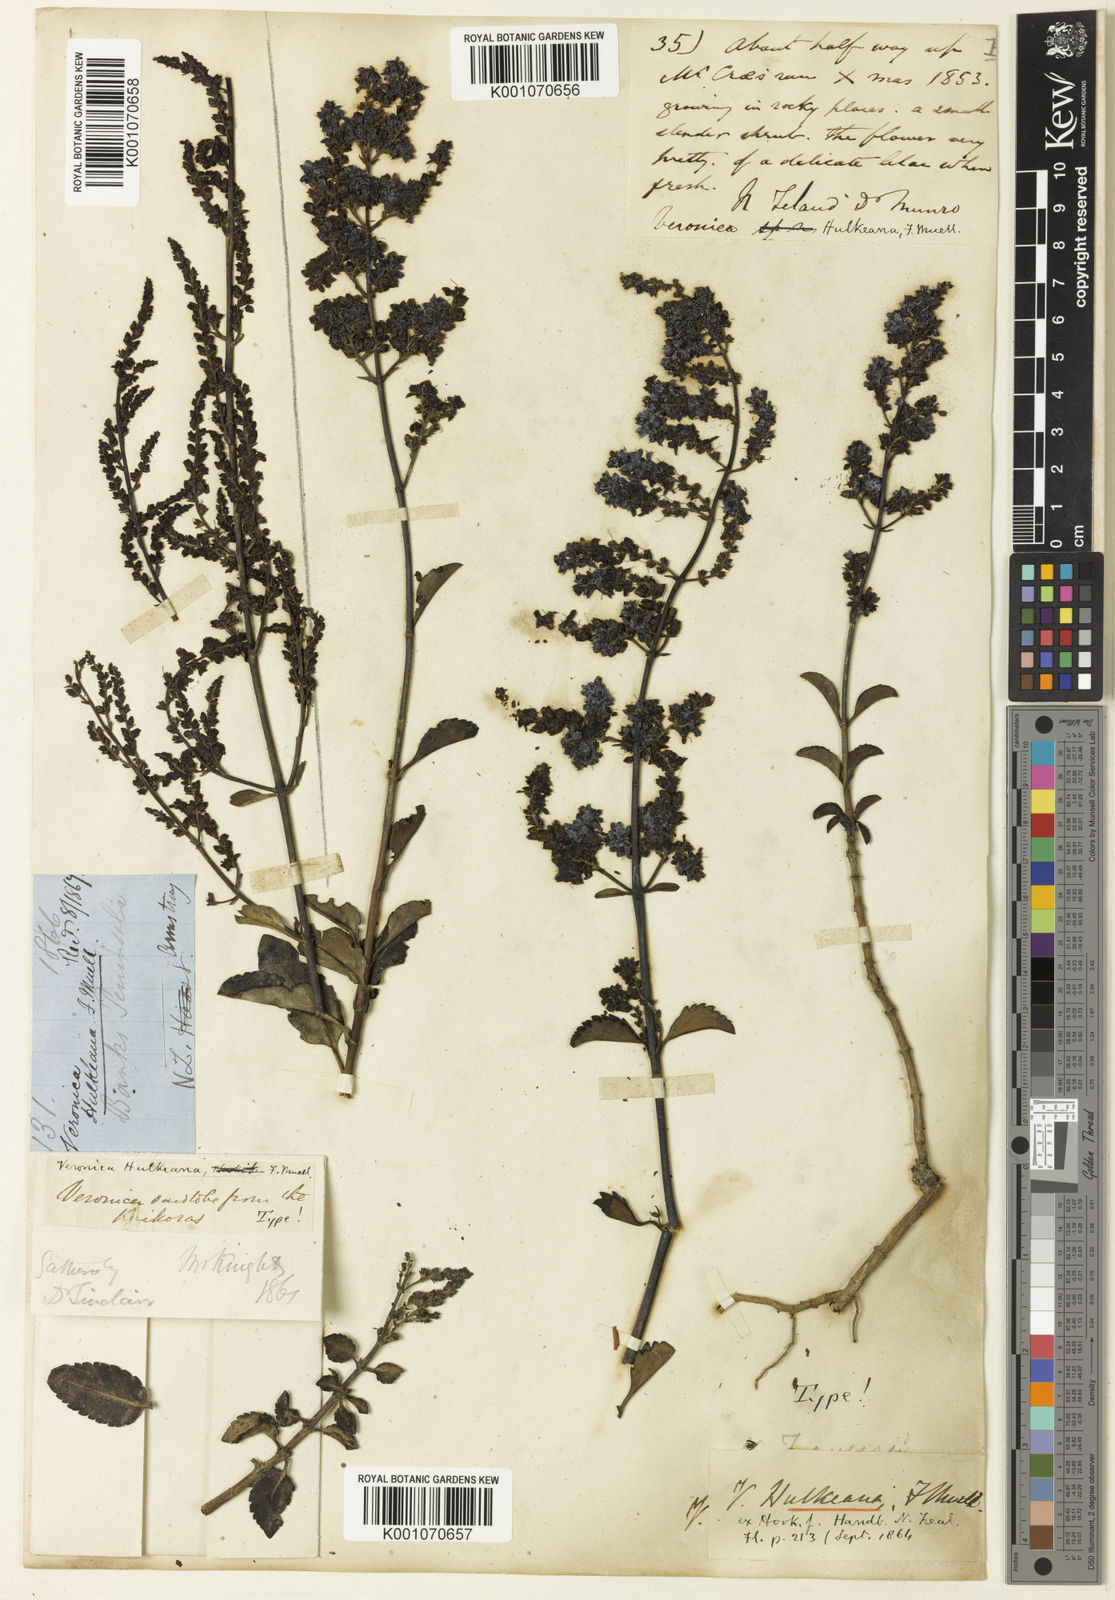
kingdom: Plantae
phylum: Tracheophyta
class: Magnoliopsida
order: Lamiales
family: Plantaginaceae
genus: Veronica
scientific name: Veronica
